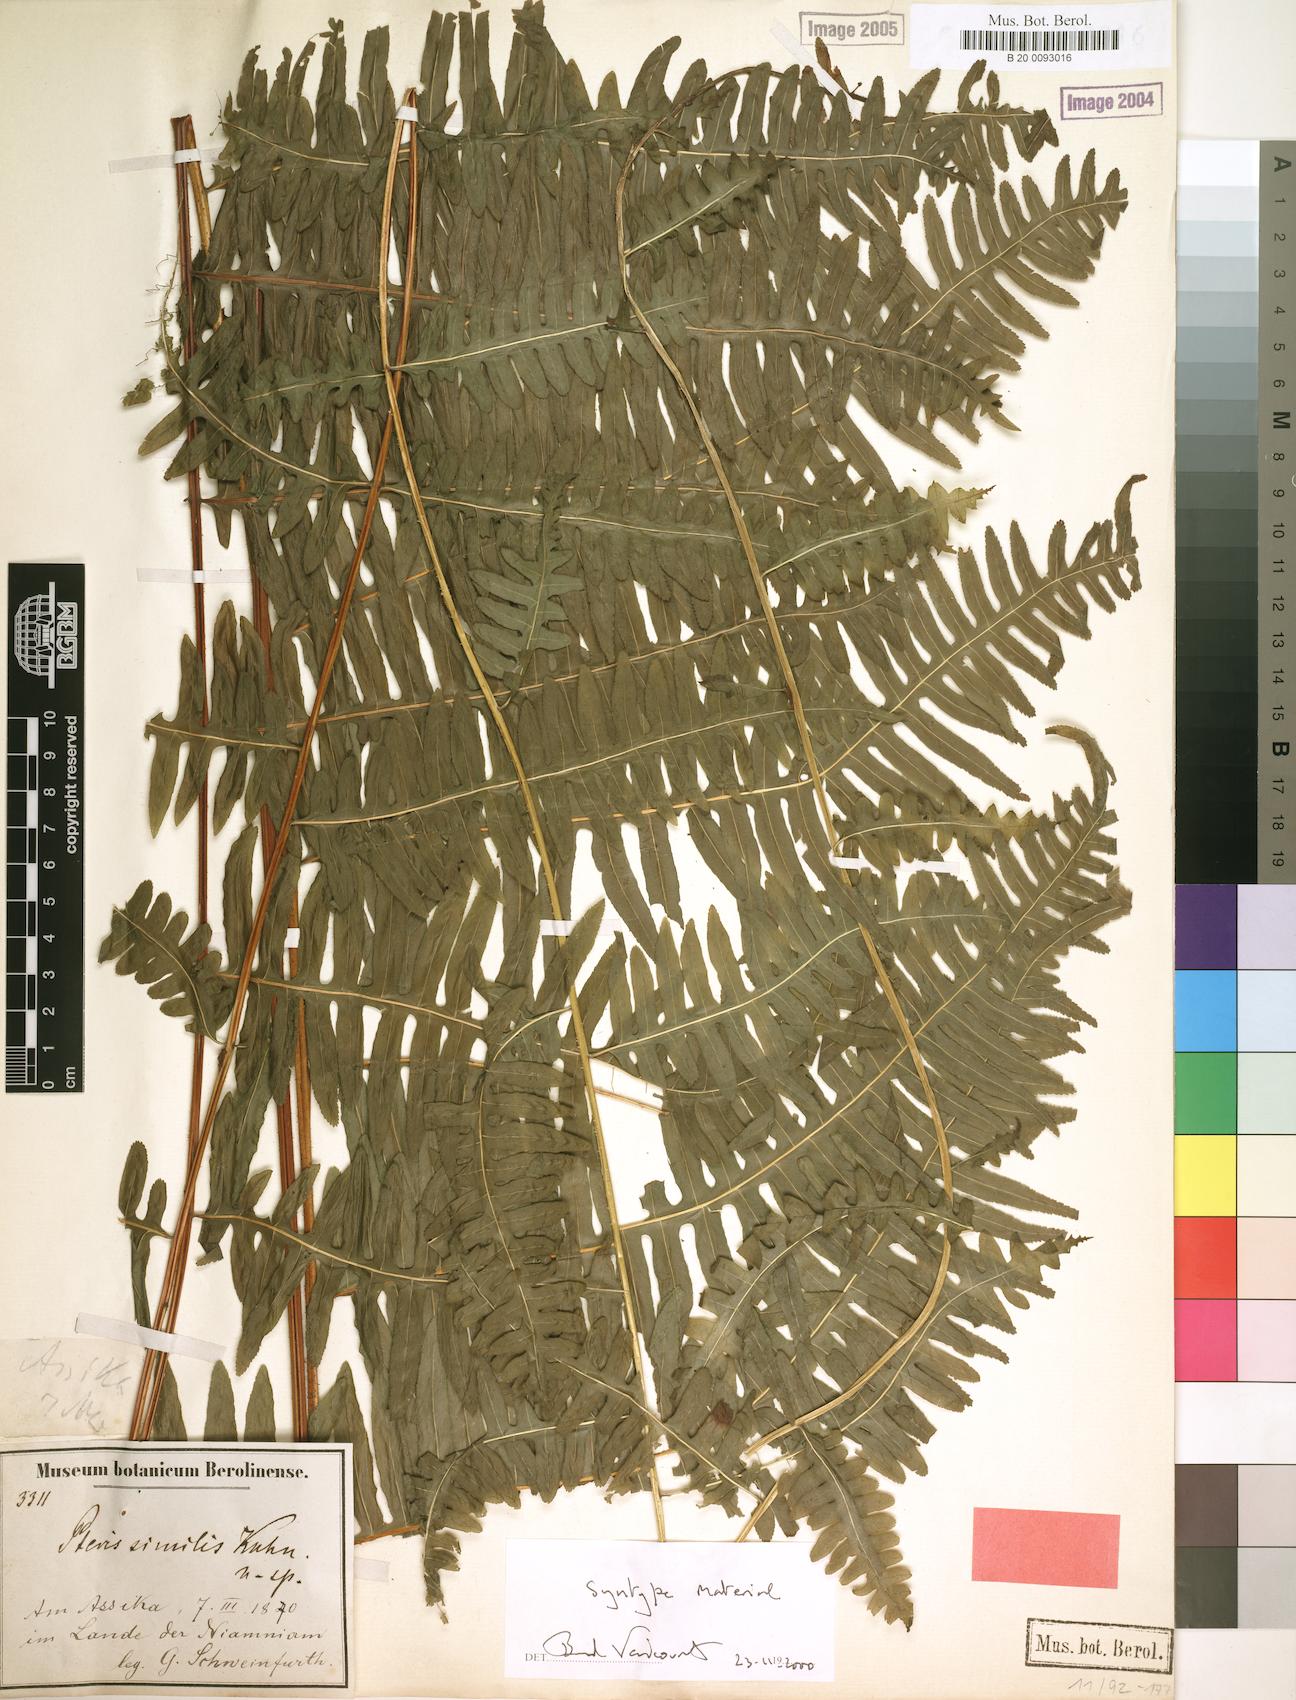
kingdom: Plantae
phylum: Tracheophyta
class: Polypodiopsida
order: Polypodiales
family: Pteridaceae
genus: Pteris
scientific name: Pteris similis
